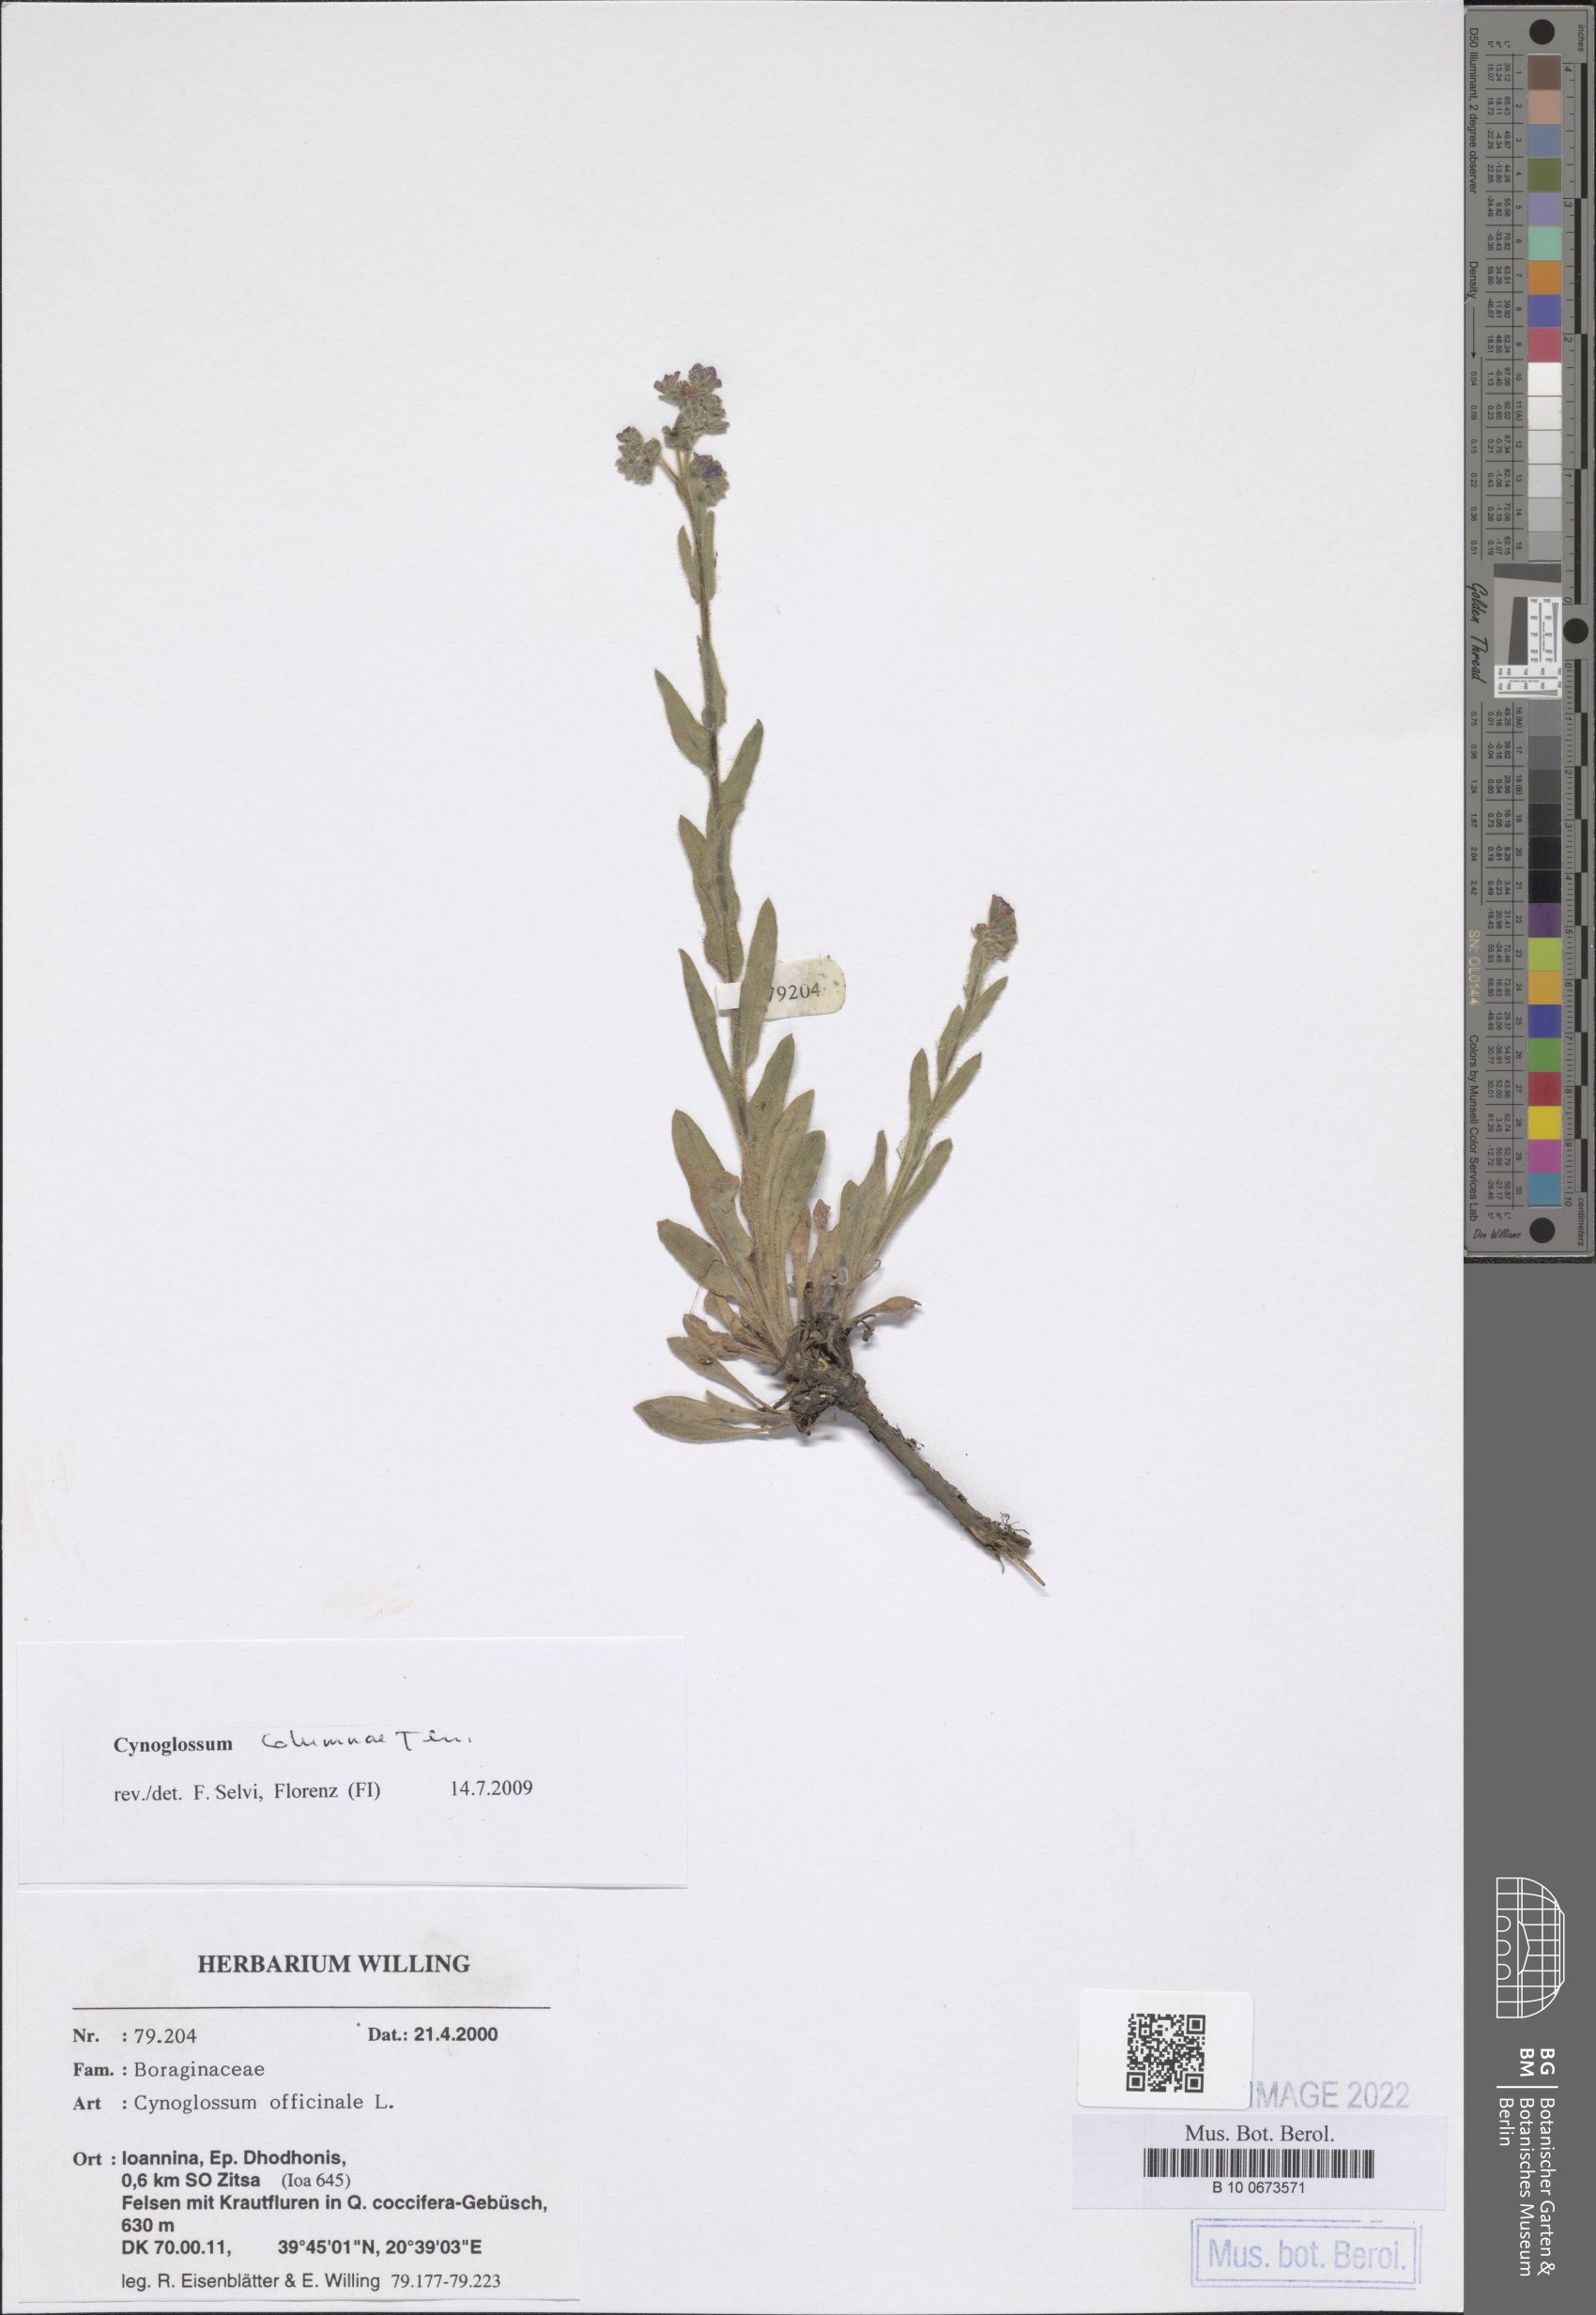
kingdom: Plantae
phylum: Tracheophyta
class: Magnoliopsida
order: Boraginales
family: Boraginaceae
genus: Rindera
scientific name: Rindera columnae
